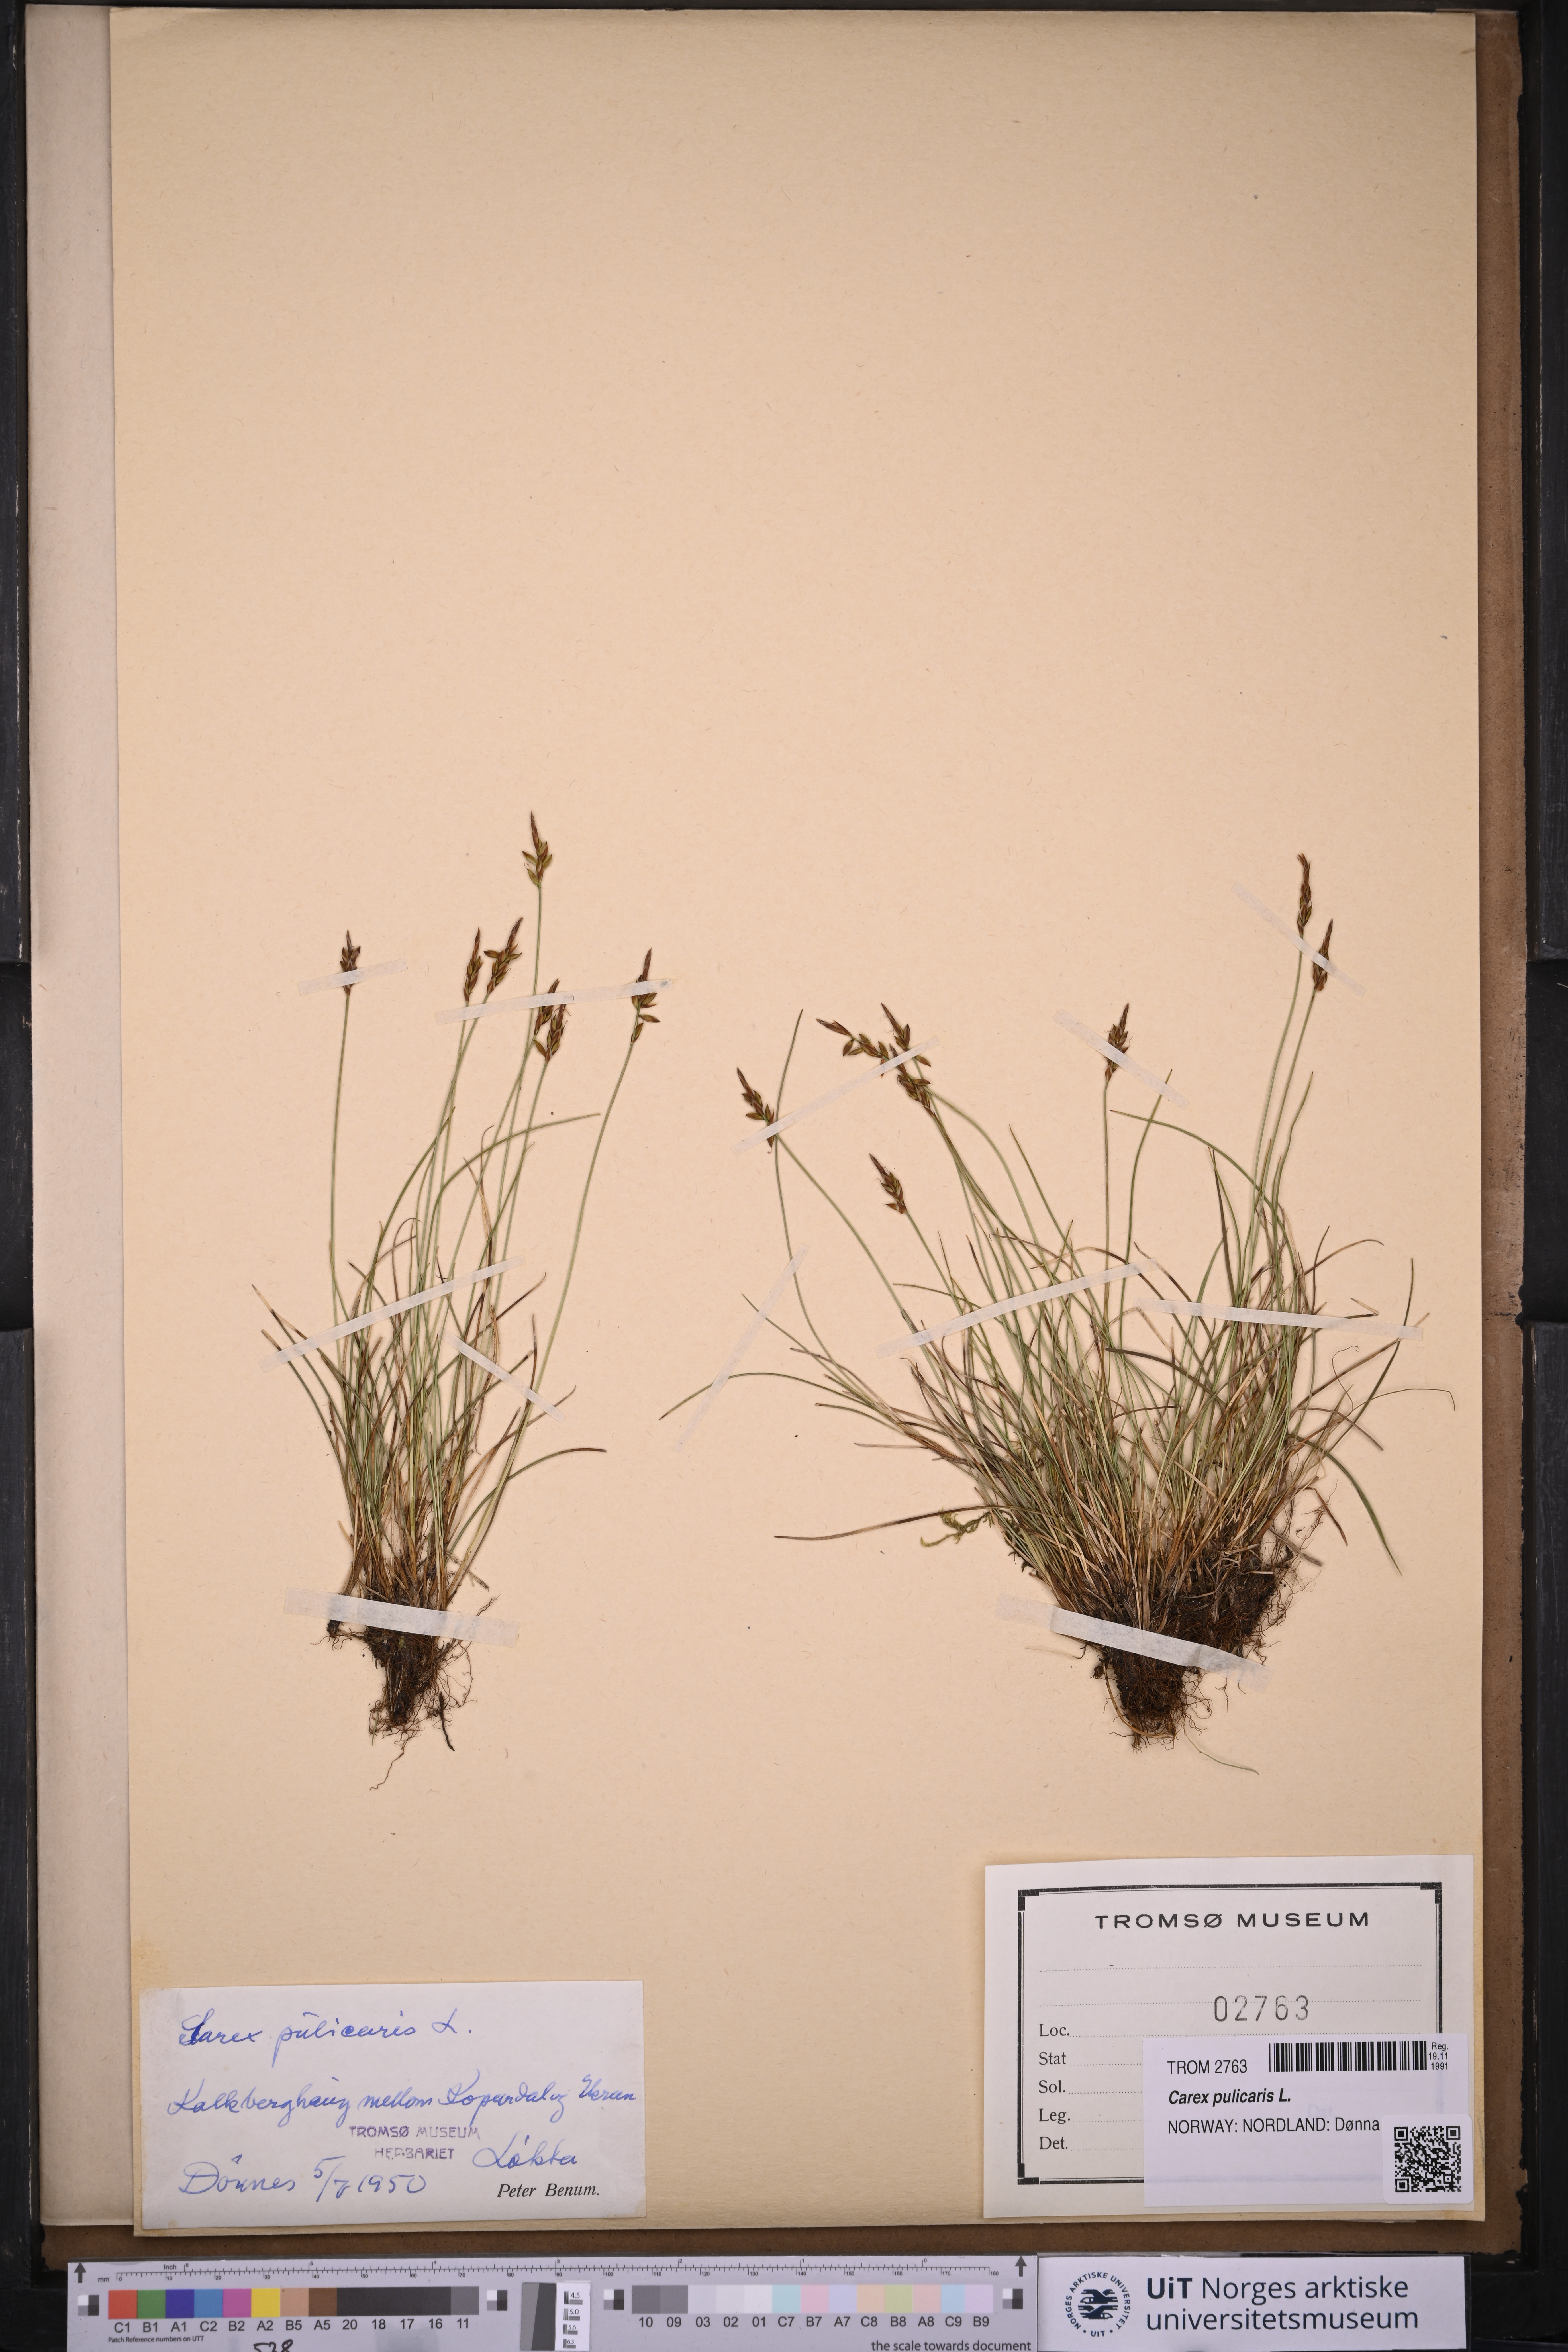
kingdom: Plantae
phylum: Tracheophyta
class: Liliopsida
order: Poales
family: Cyperaceae
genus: Carex
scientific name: Carex pulicaris
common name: Flea sedge
